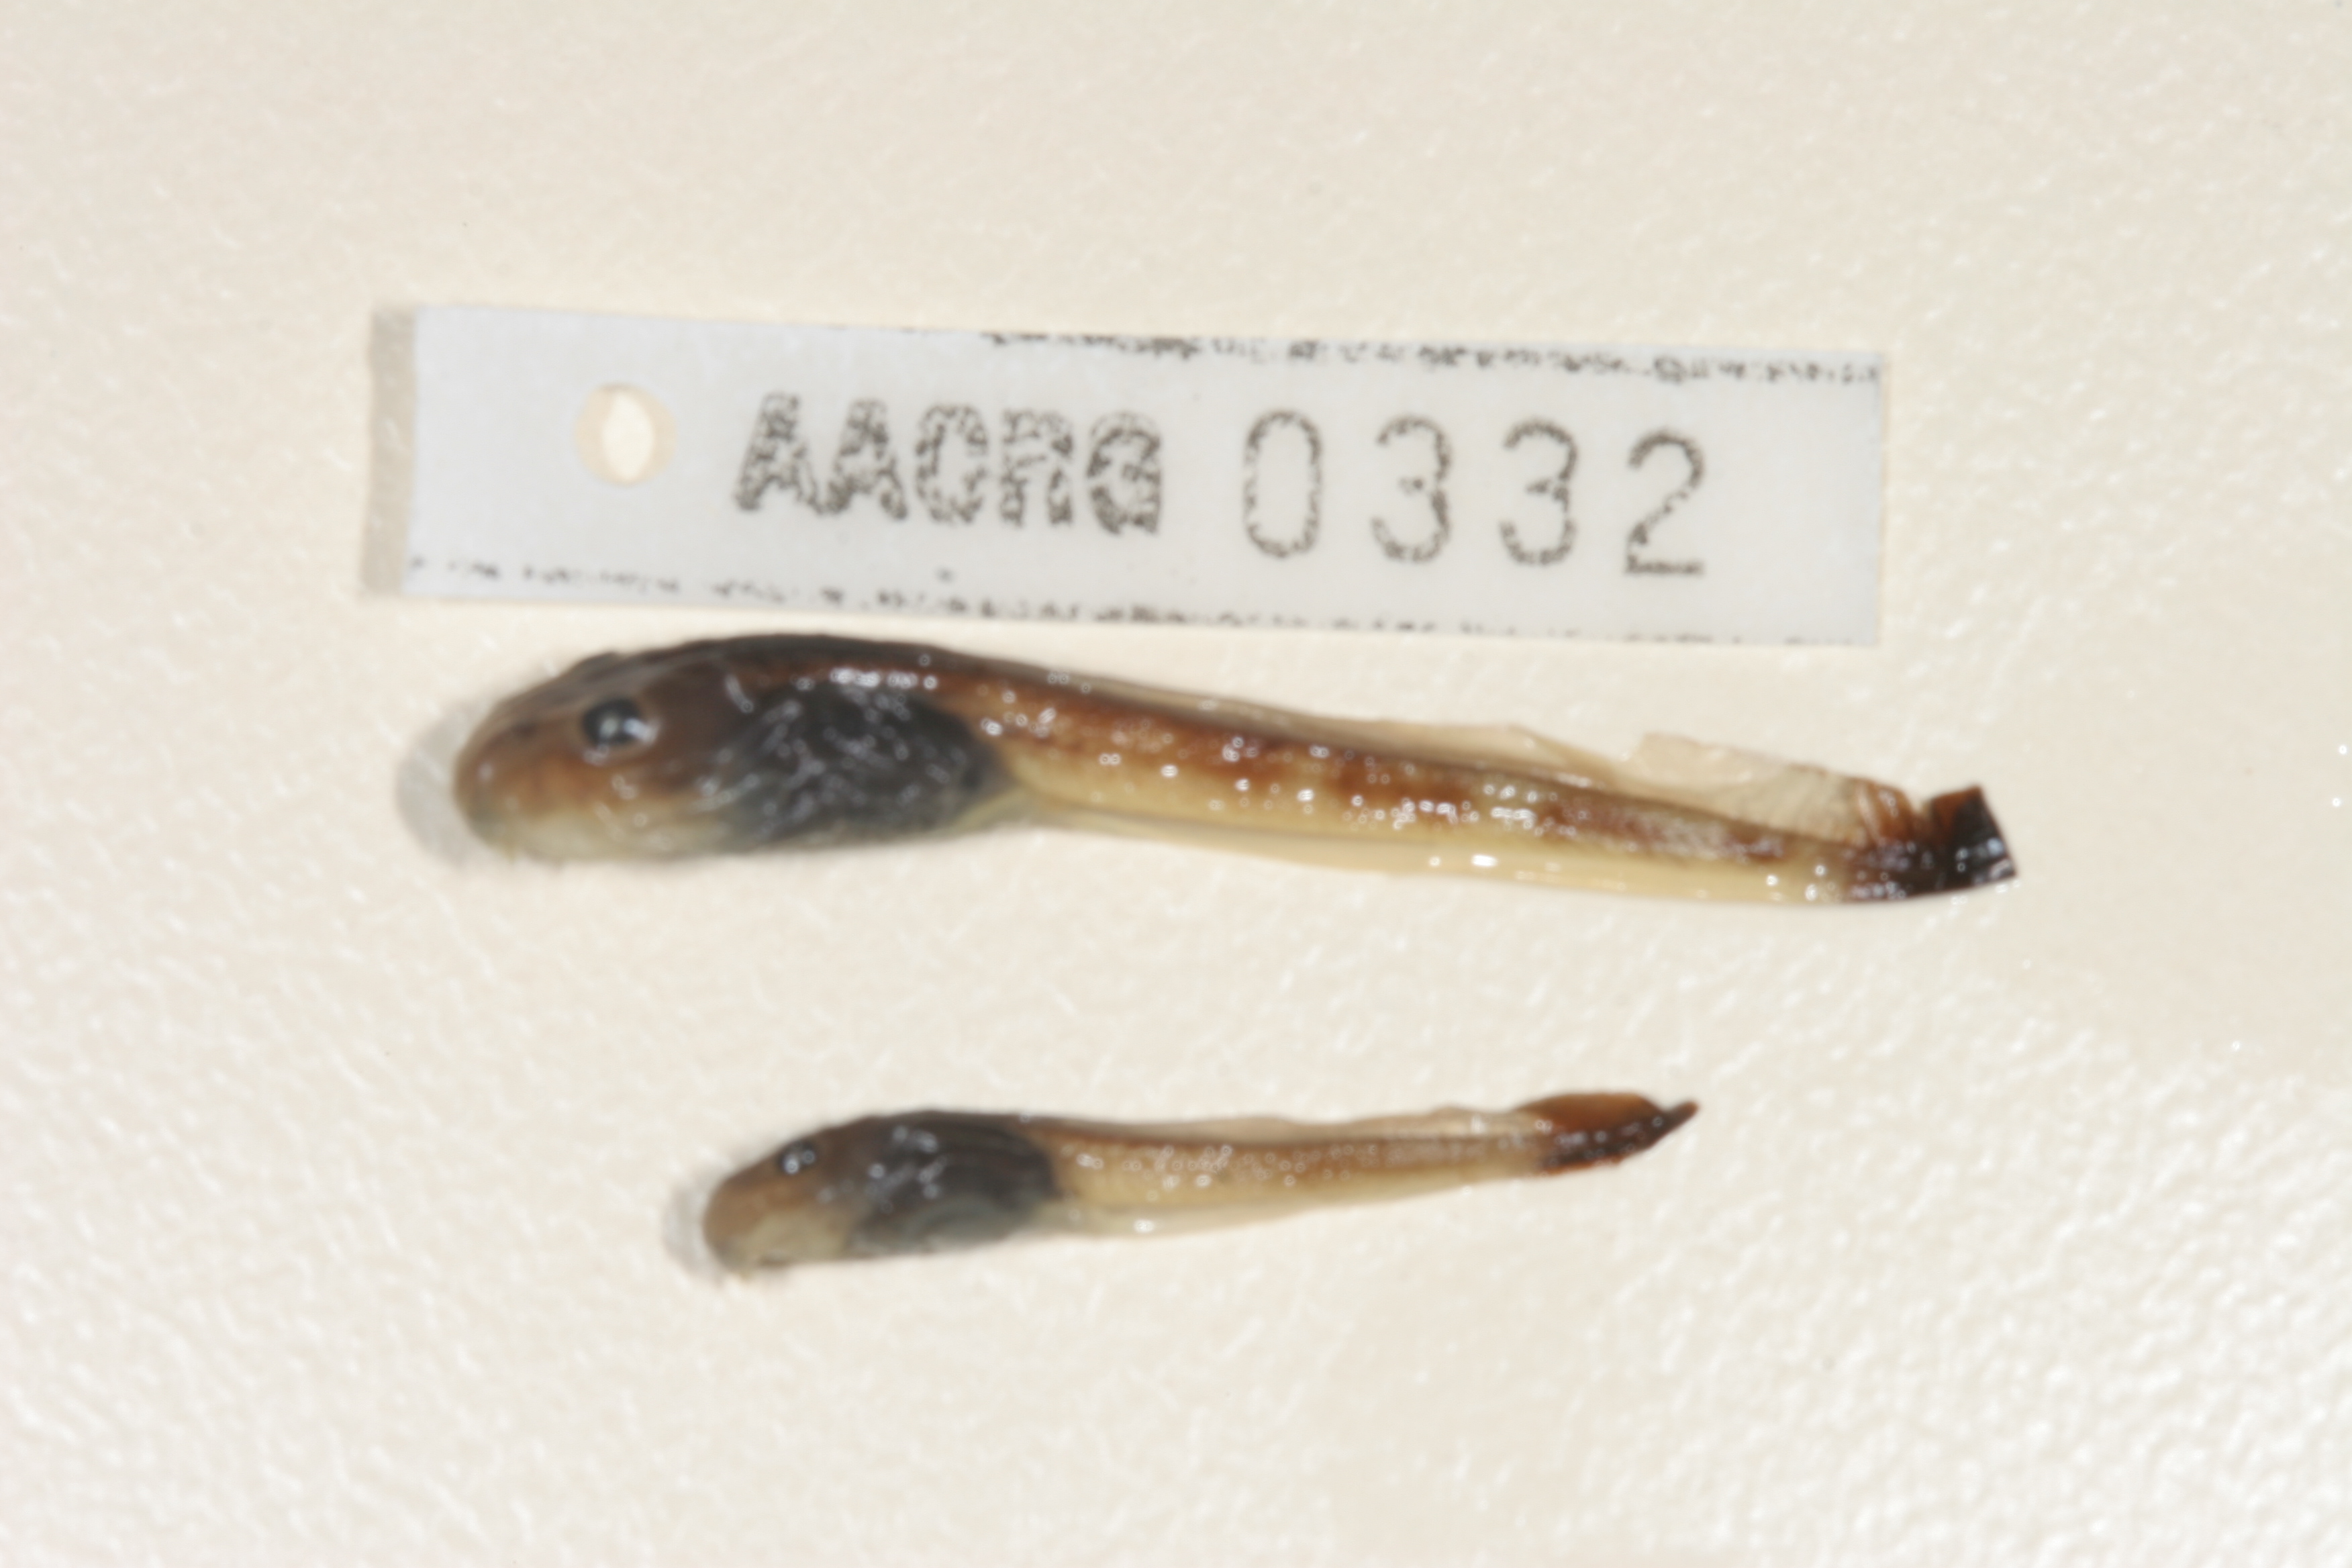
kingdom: Animalia
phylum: Chordata
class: Amphibia
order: Anura
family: Pyxicephalidae
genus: Strongylopus
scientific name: Strongylopus wageri
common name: Wager's stream frog
